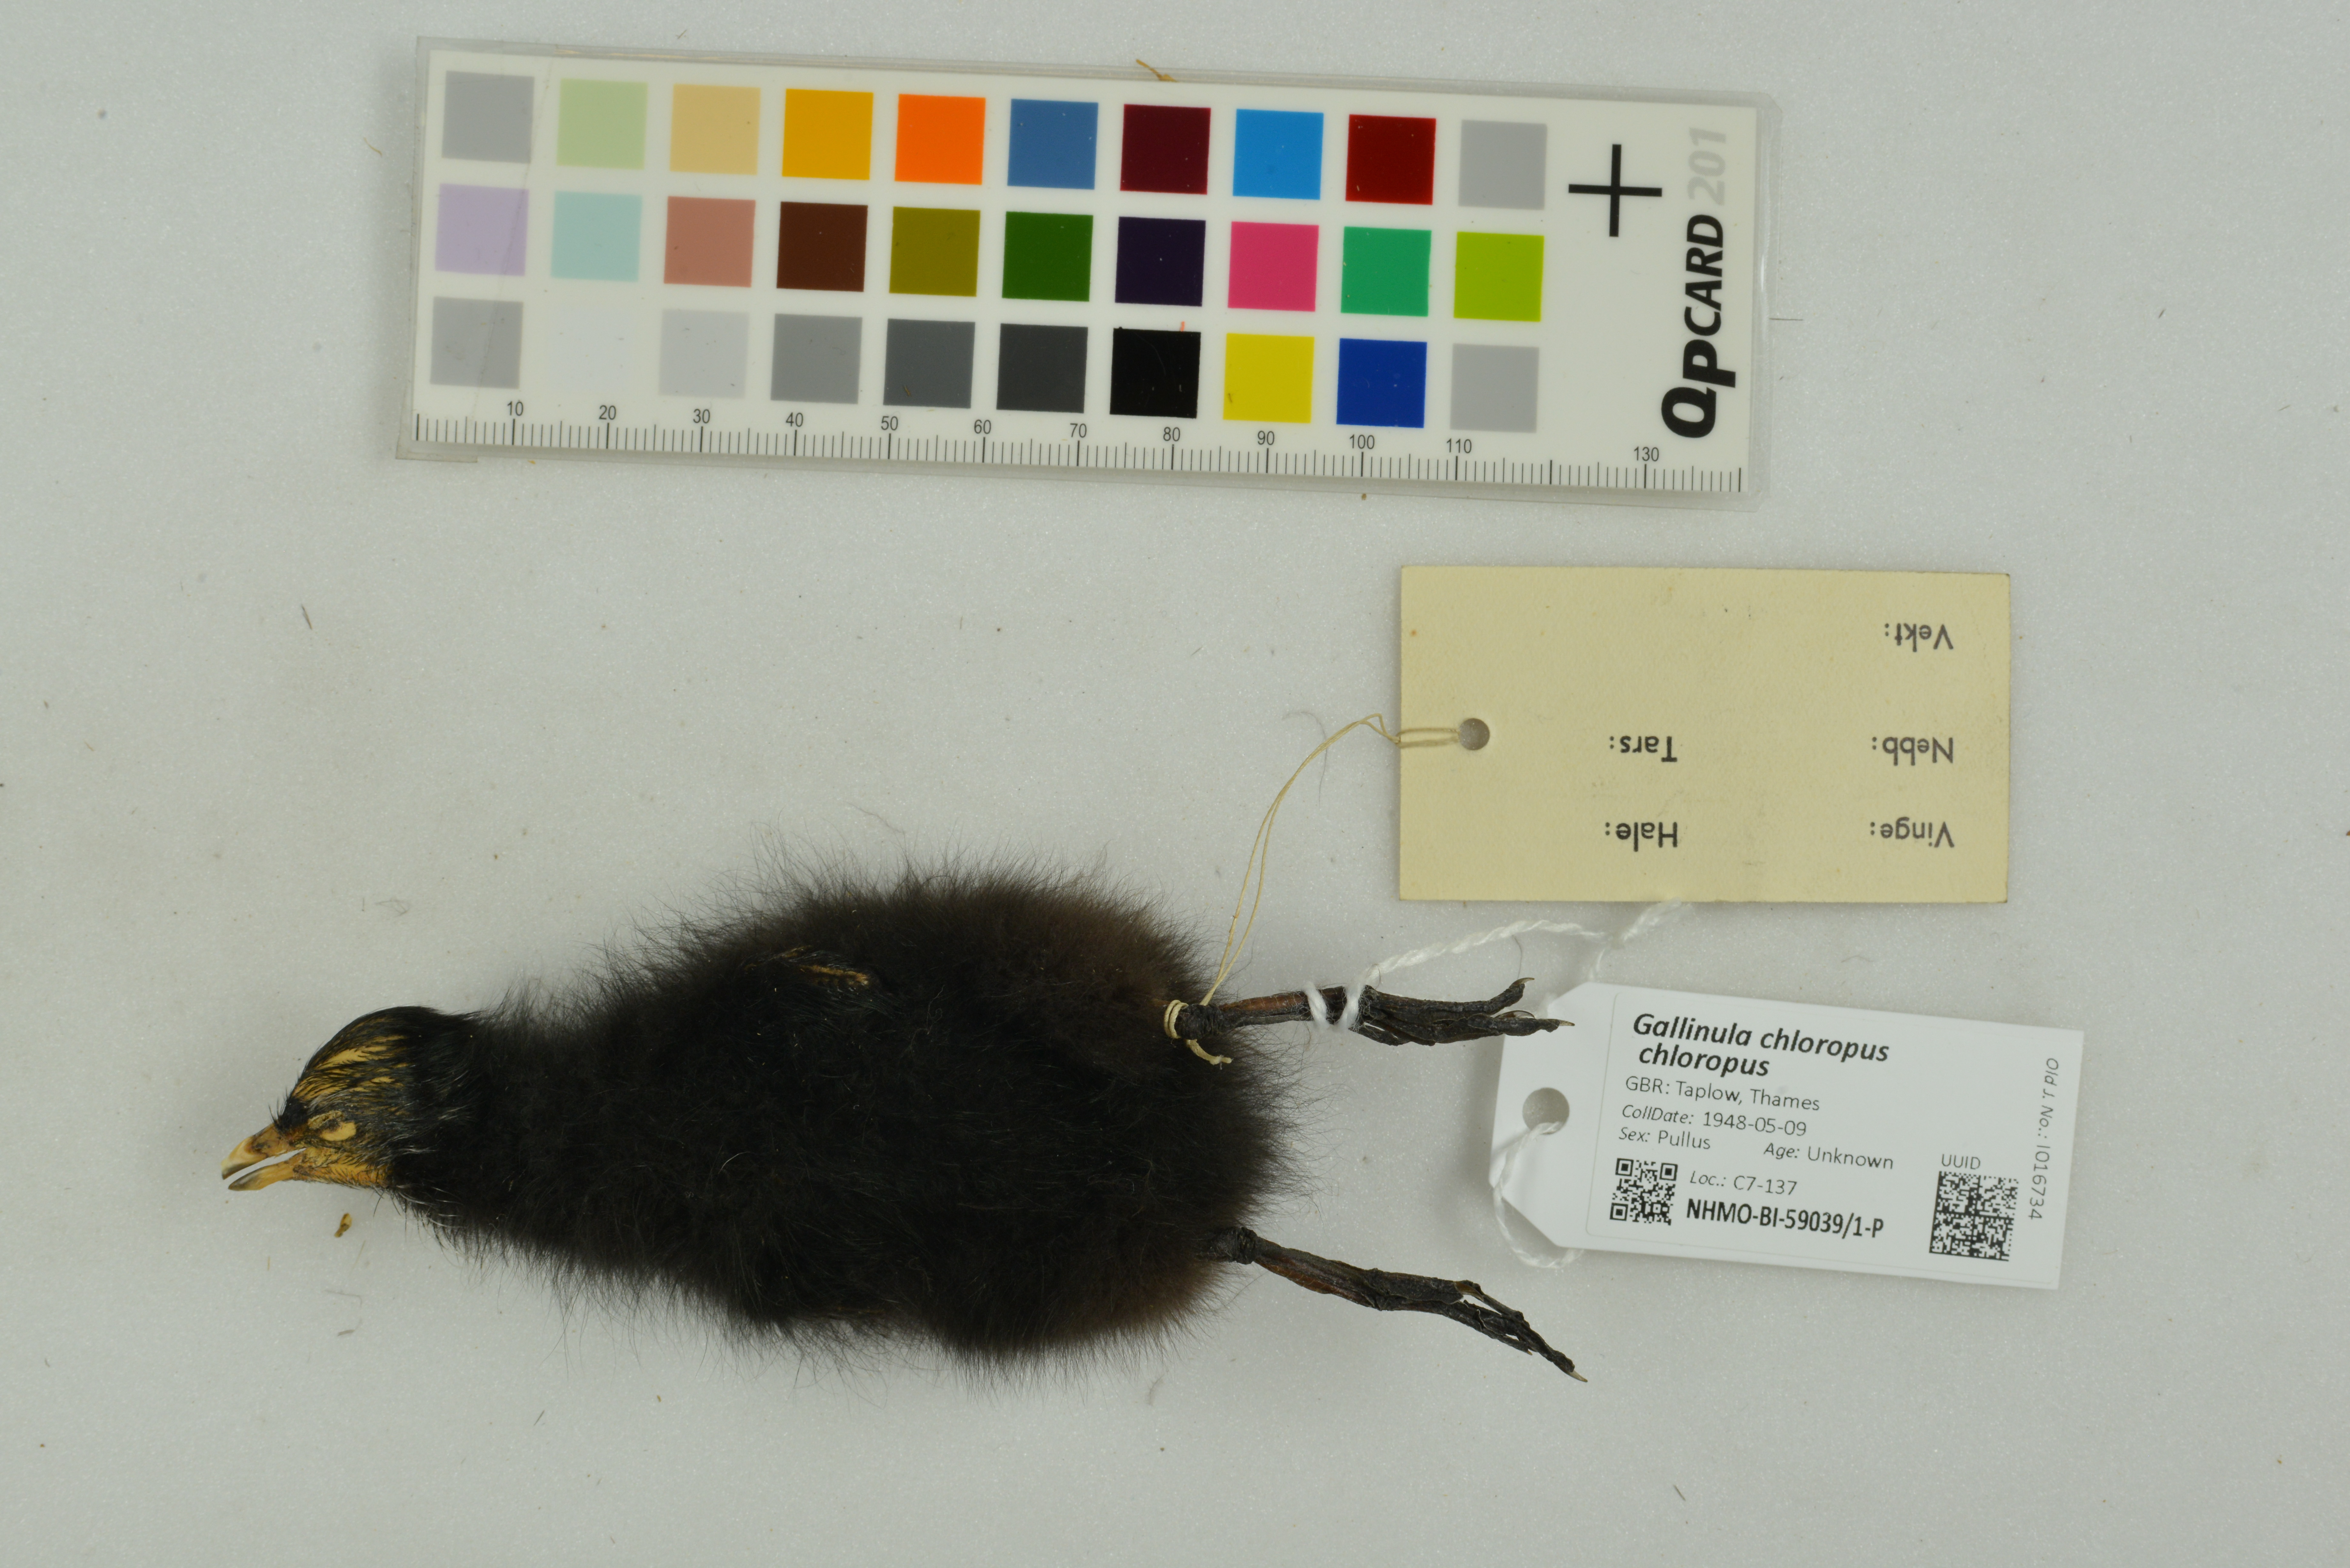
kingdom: Animalia
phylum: Chordata
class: Aves
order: Gruiformes
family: Rallidae
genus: Gallinula
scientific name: Gallinula chloropus
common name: Common moorhen
